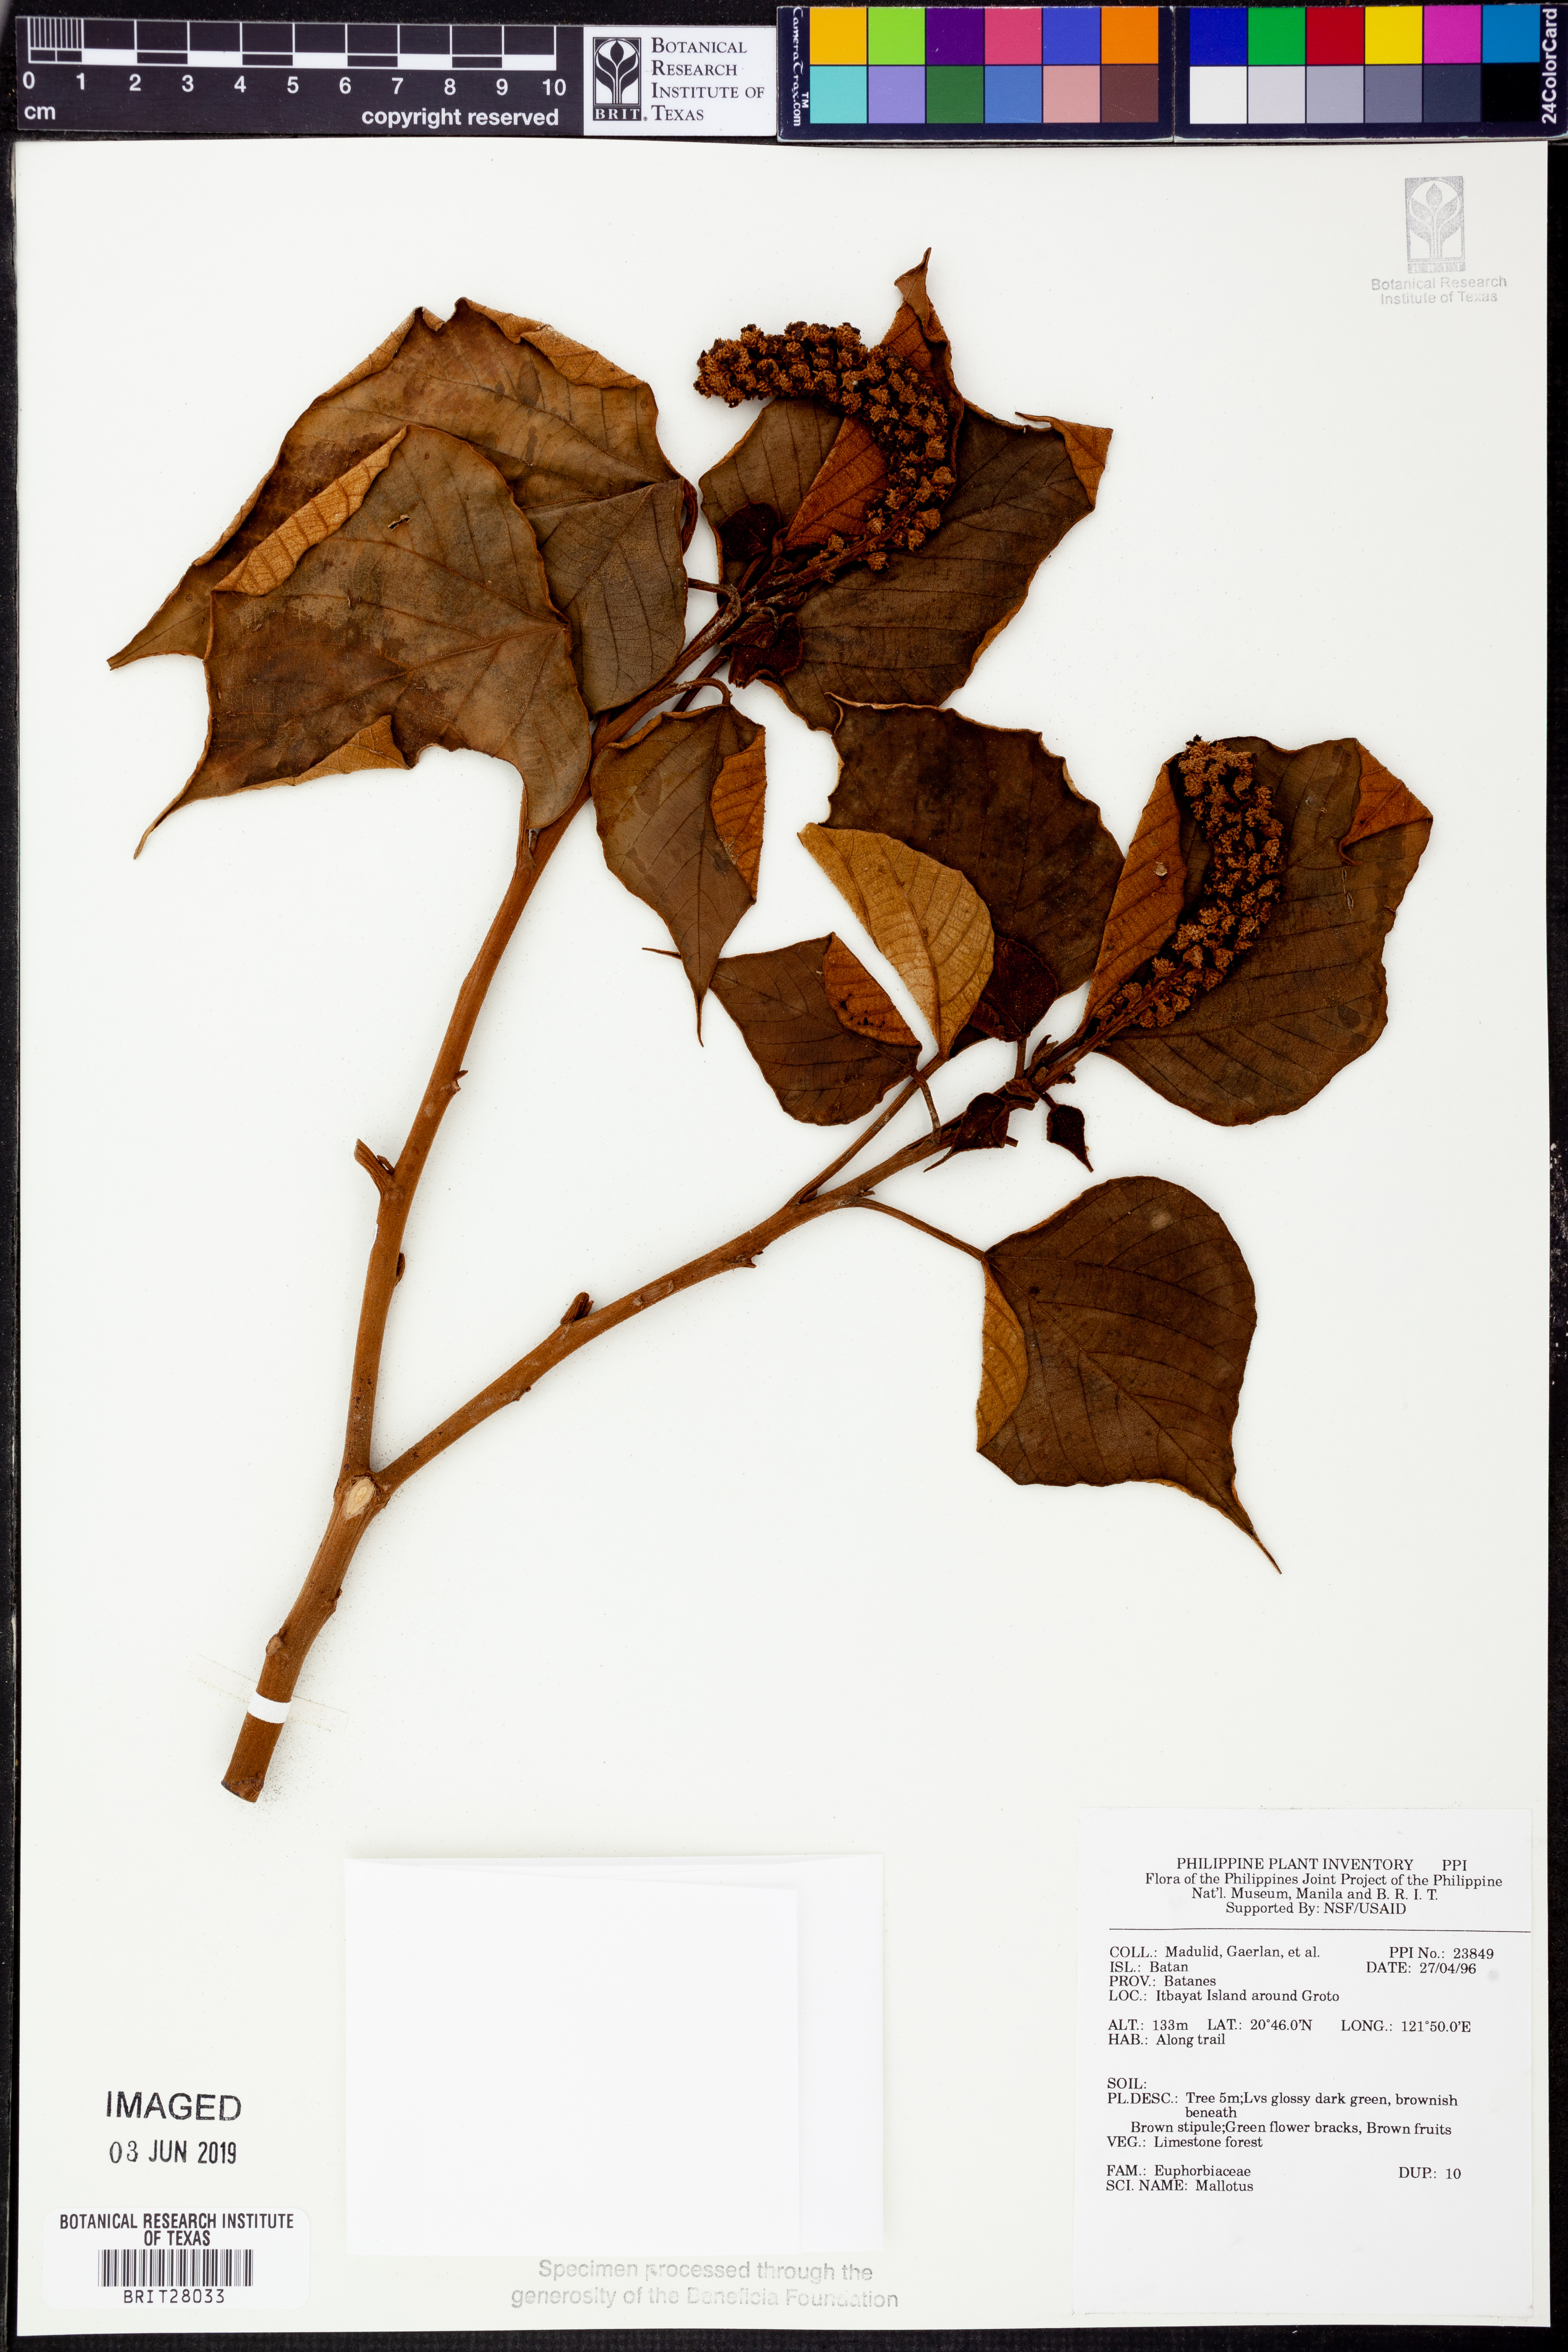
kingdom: Plantae
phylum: Tracheophyta
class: Magnoliopsida
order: Malpighiales
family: Euphorbiaceae
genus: Mallotus
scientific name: Mallotus
